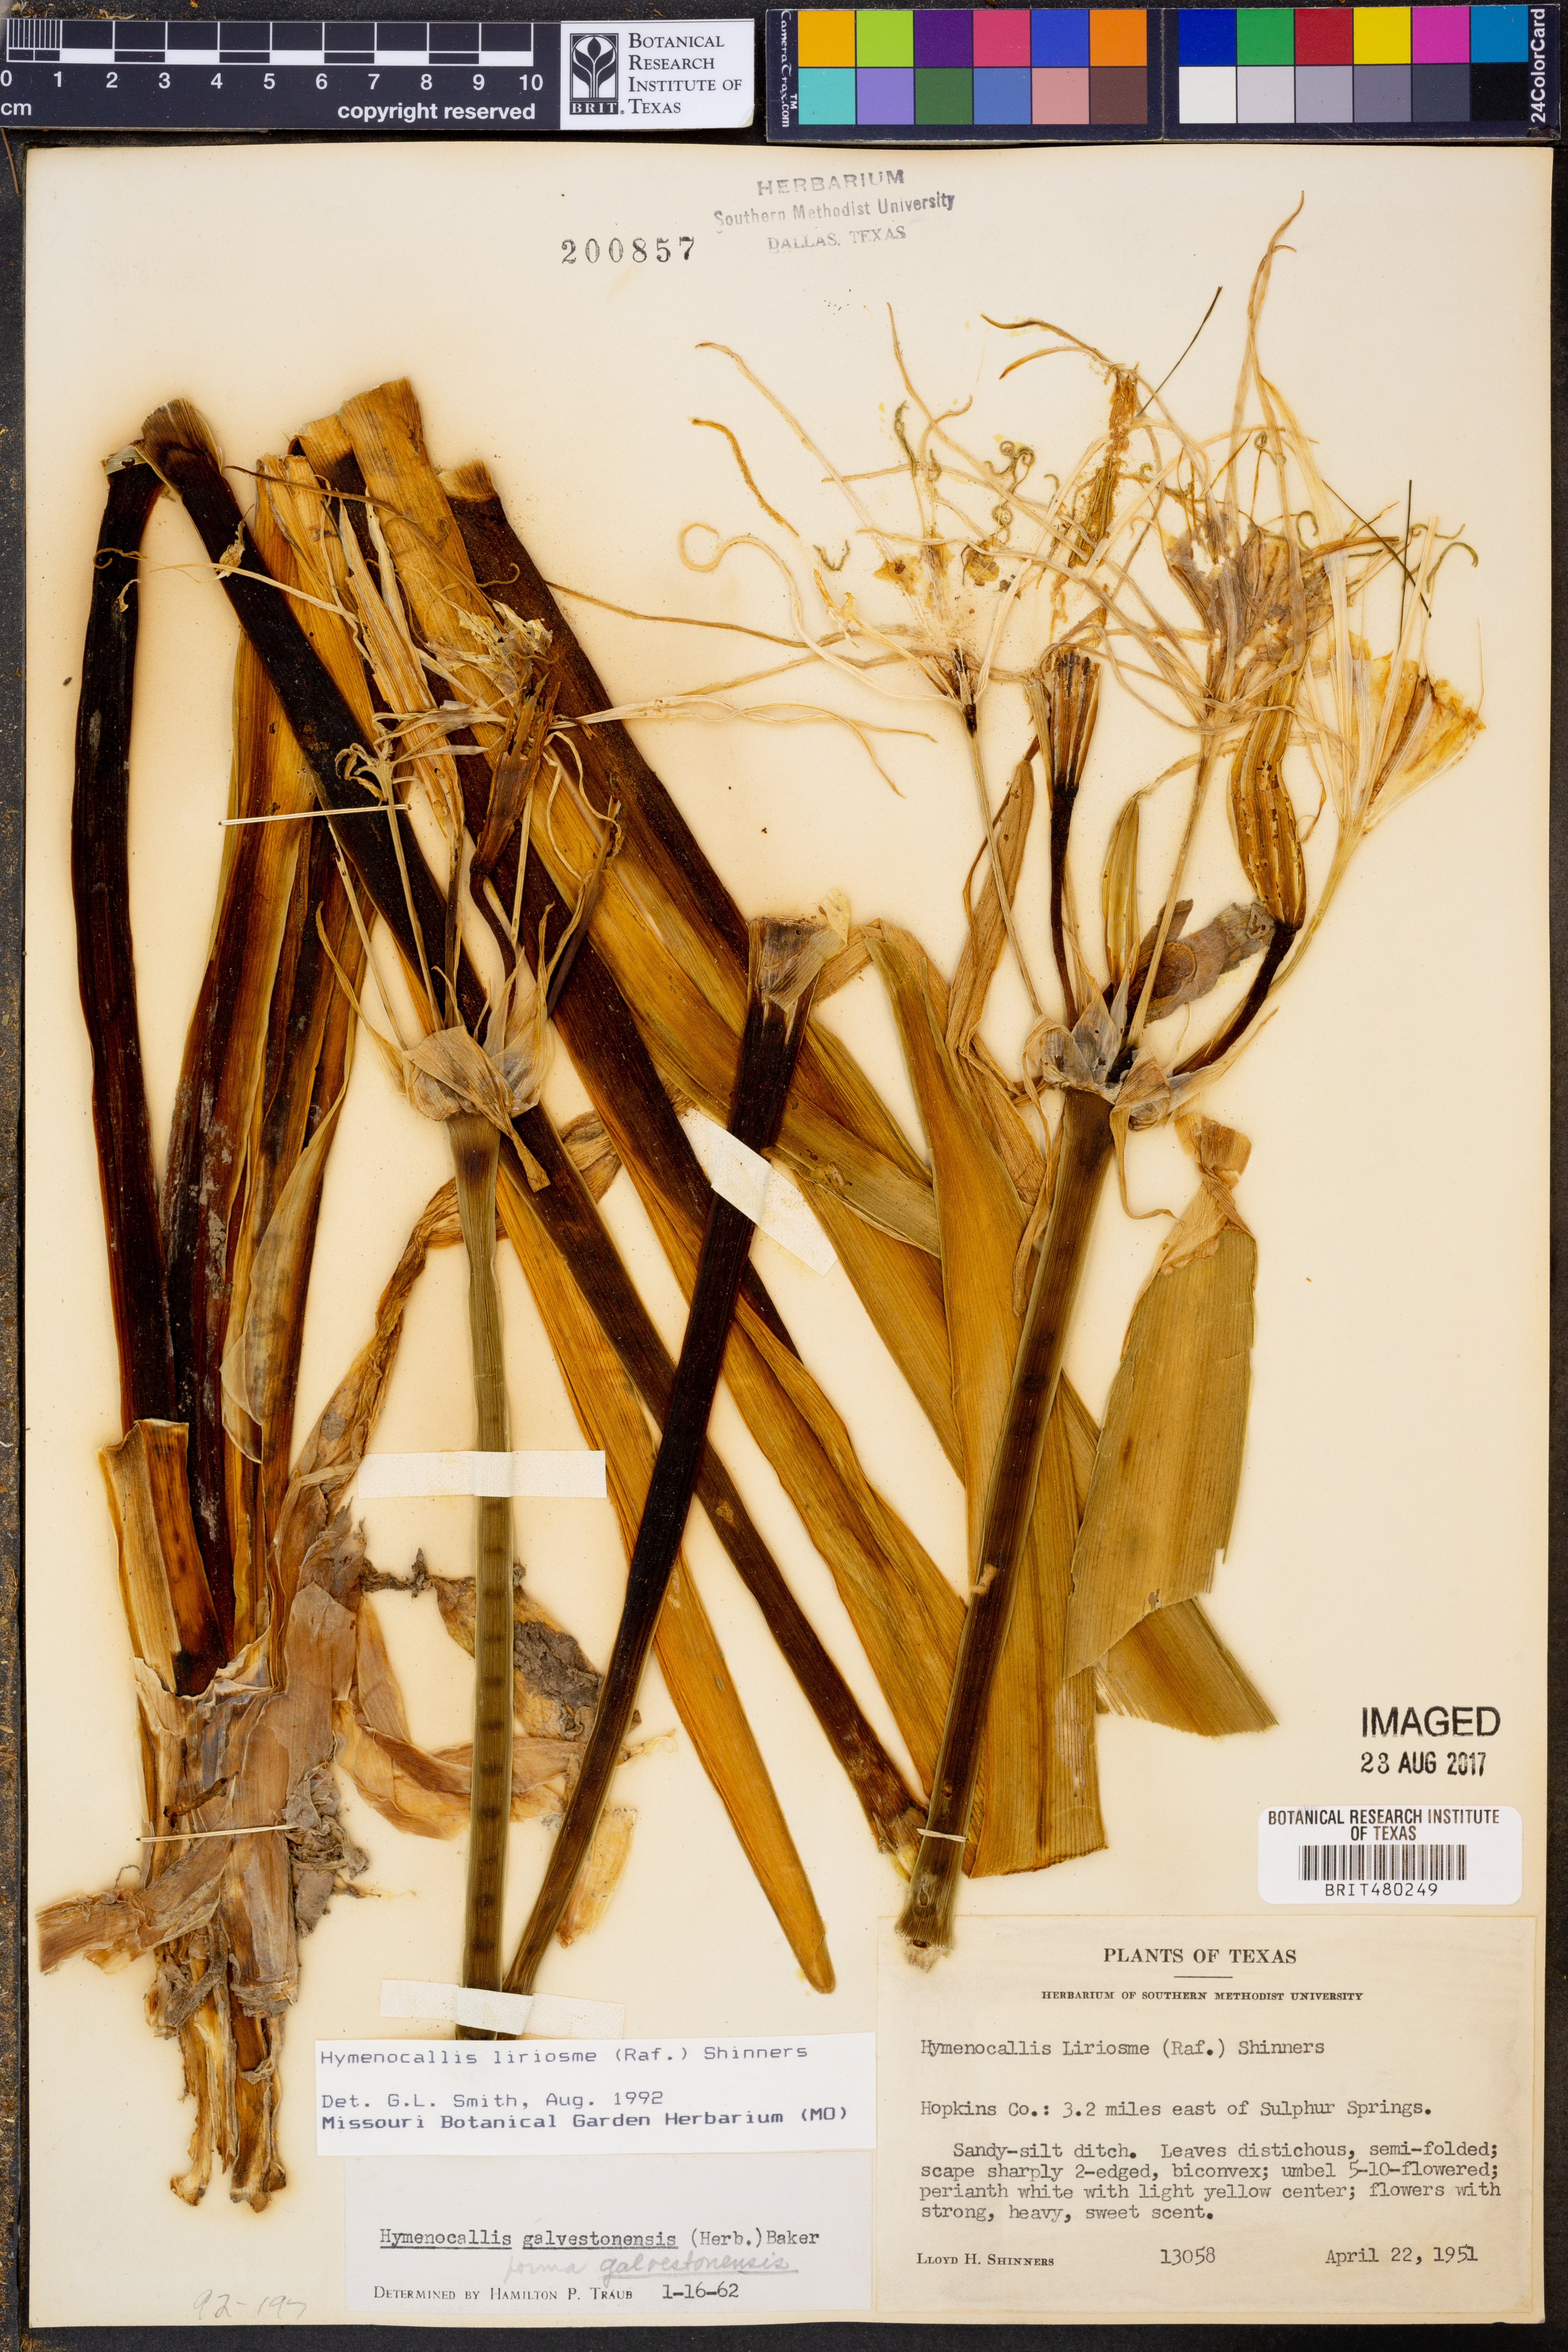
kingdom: Plantae
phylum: Tracheophyta
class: Liliopsida
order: Asparagales
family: Amaryllidaceae
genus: Hymenocallis
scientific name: Hymenocallis liriosme
